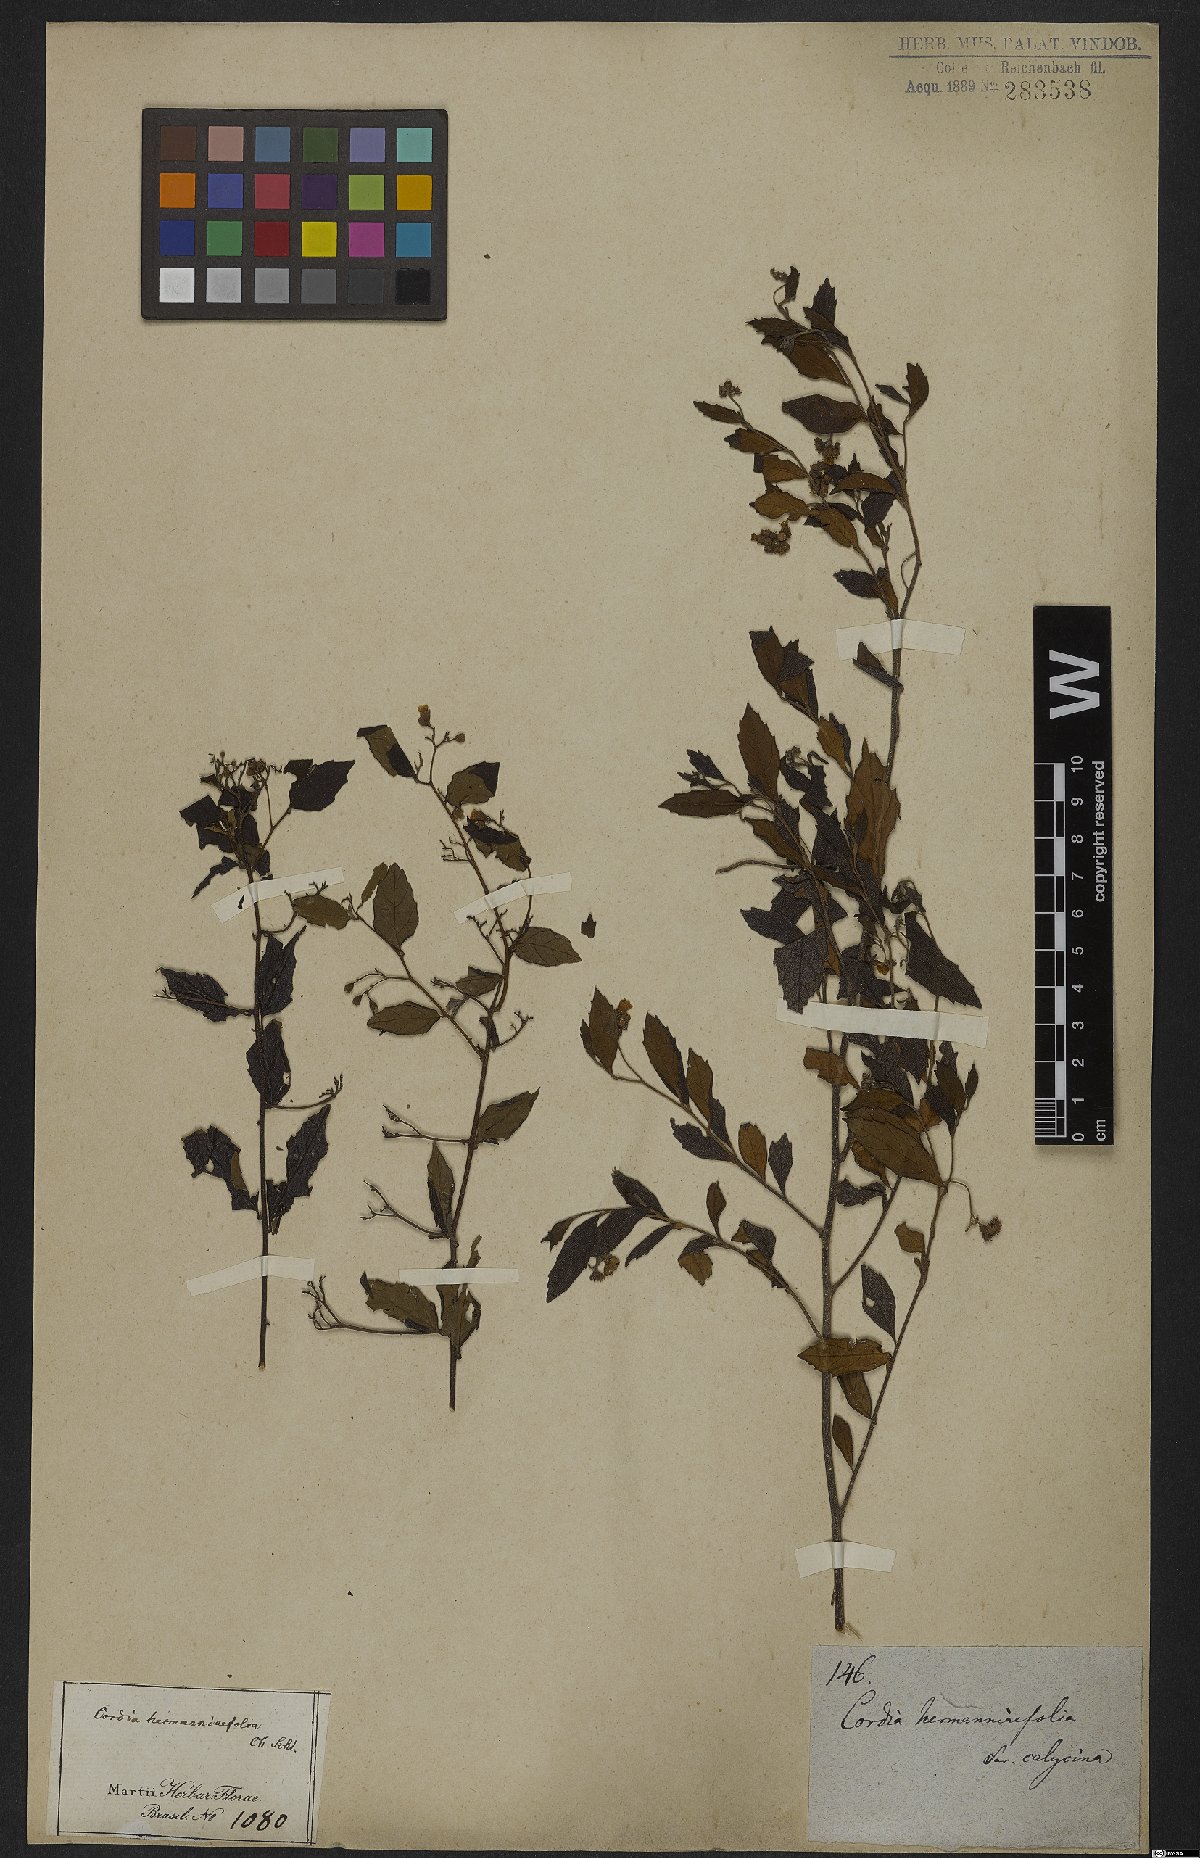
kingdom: Plantae
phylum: Tracheophyta
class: Magnoliopsida
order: Boraginales
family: Cordiaceae
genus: Varronia
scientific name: Varronia polycephala
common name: Black-sage
